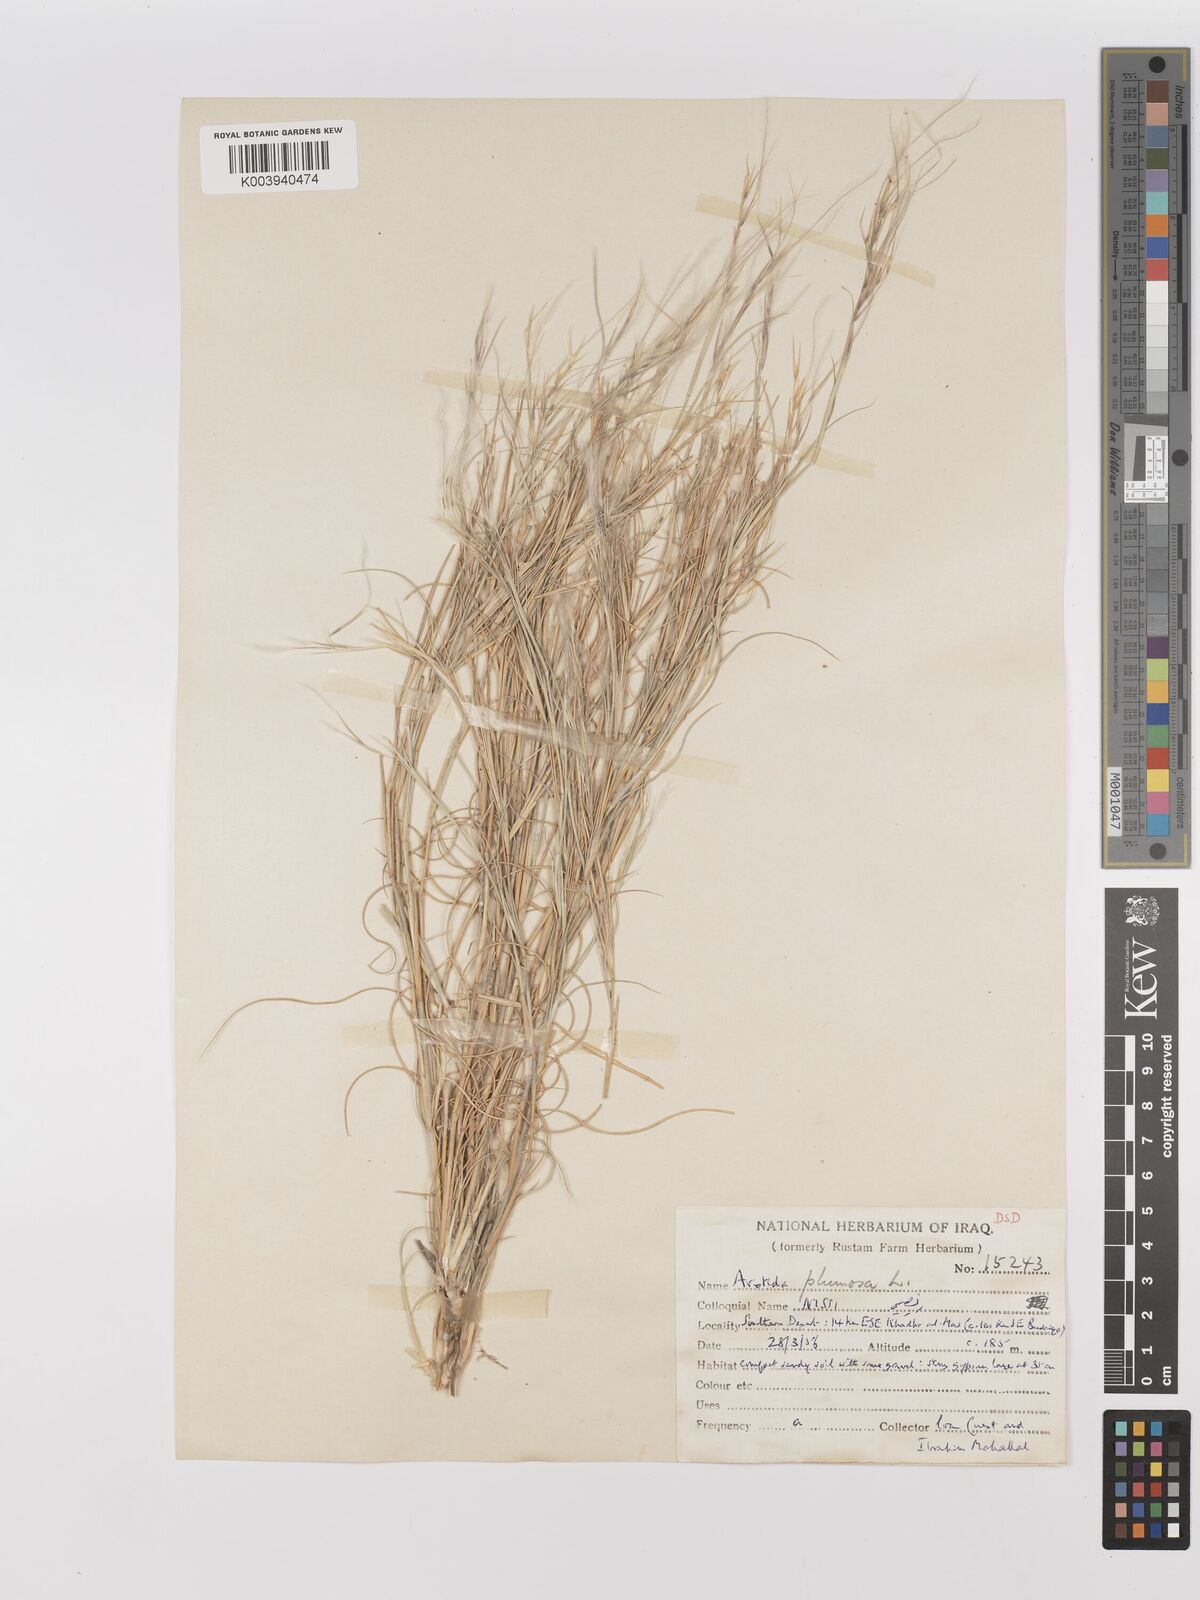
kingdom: Plantae
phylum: Tracheophyta
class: Liliopsida
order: Poales
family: Poaceae
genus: Stipagrostis
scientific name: Stipagrostis plumosa
